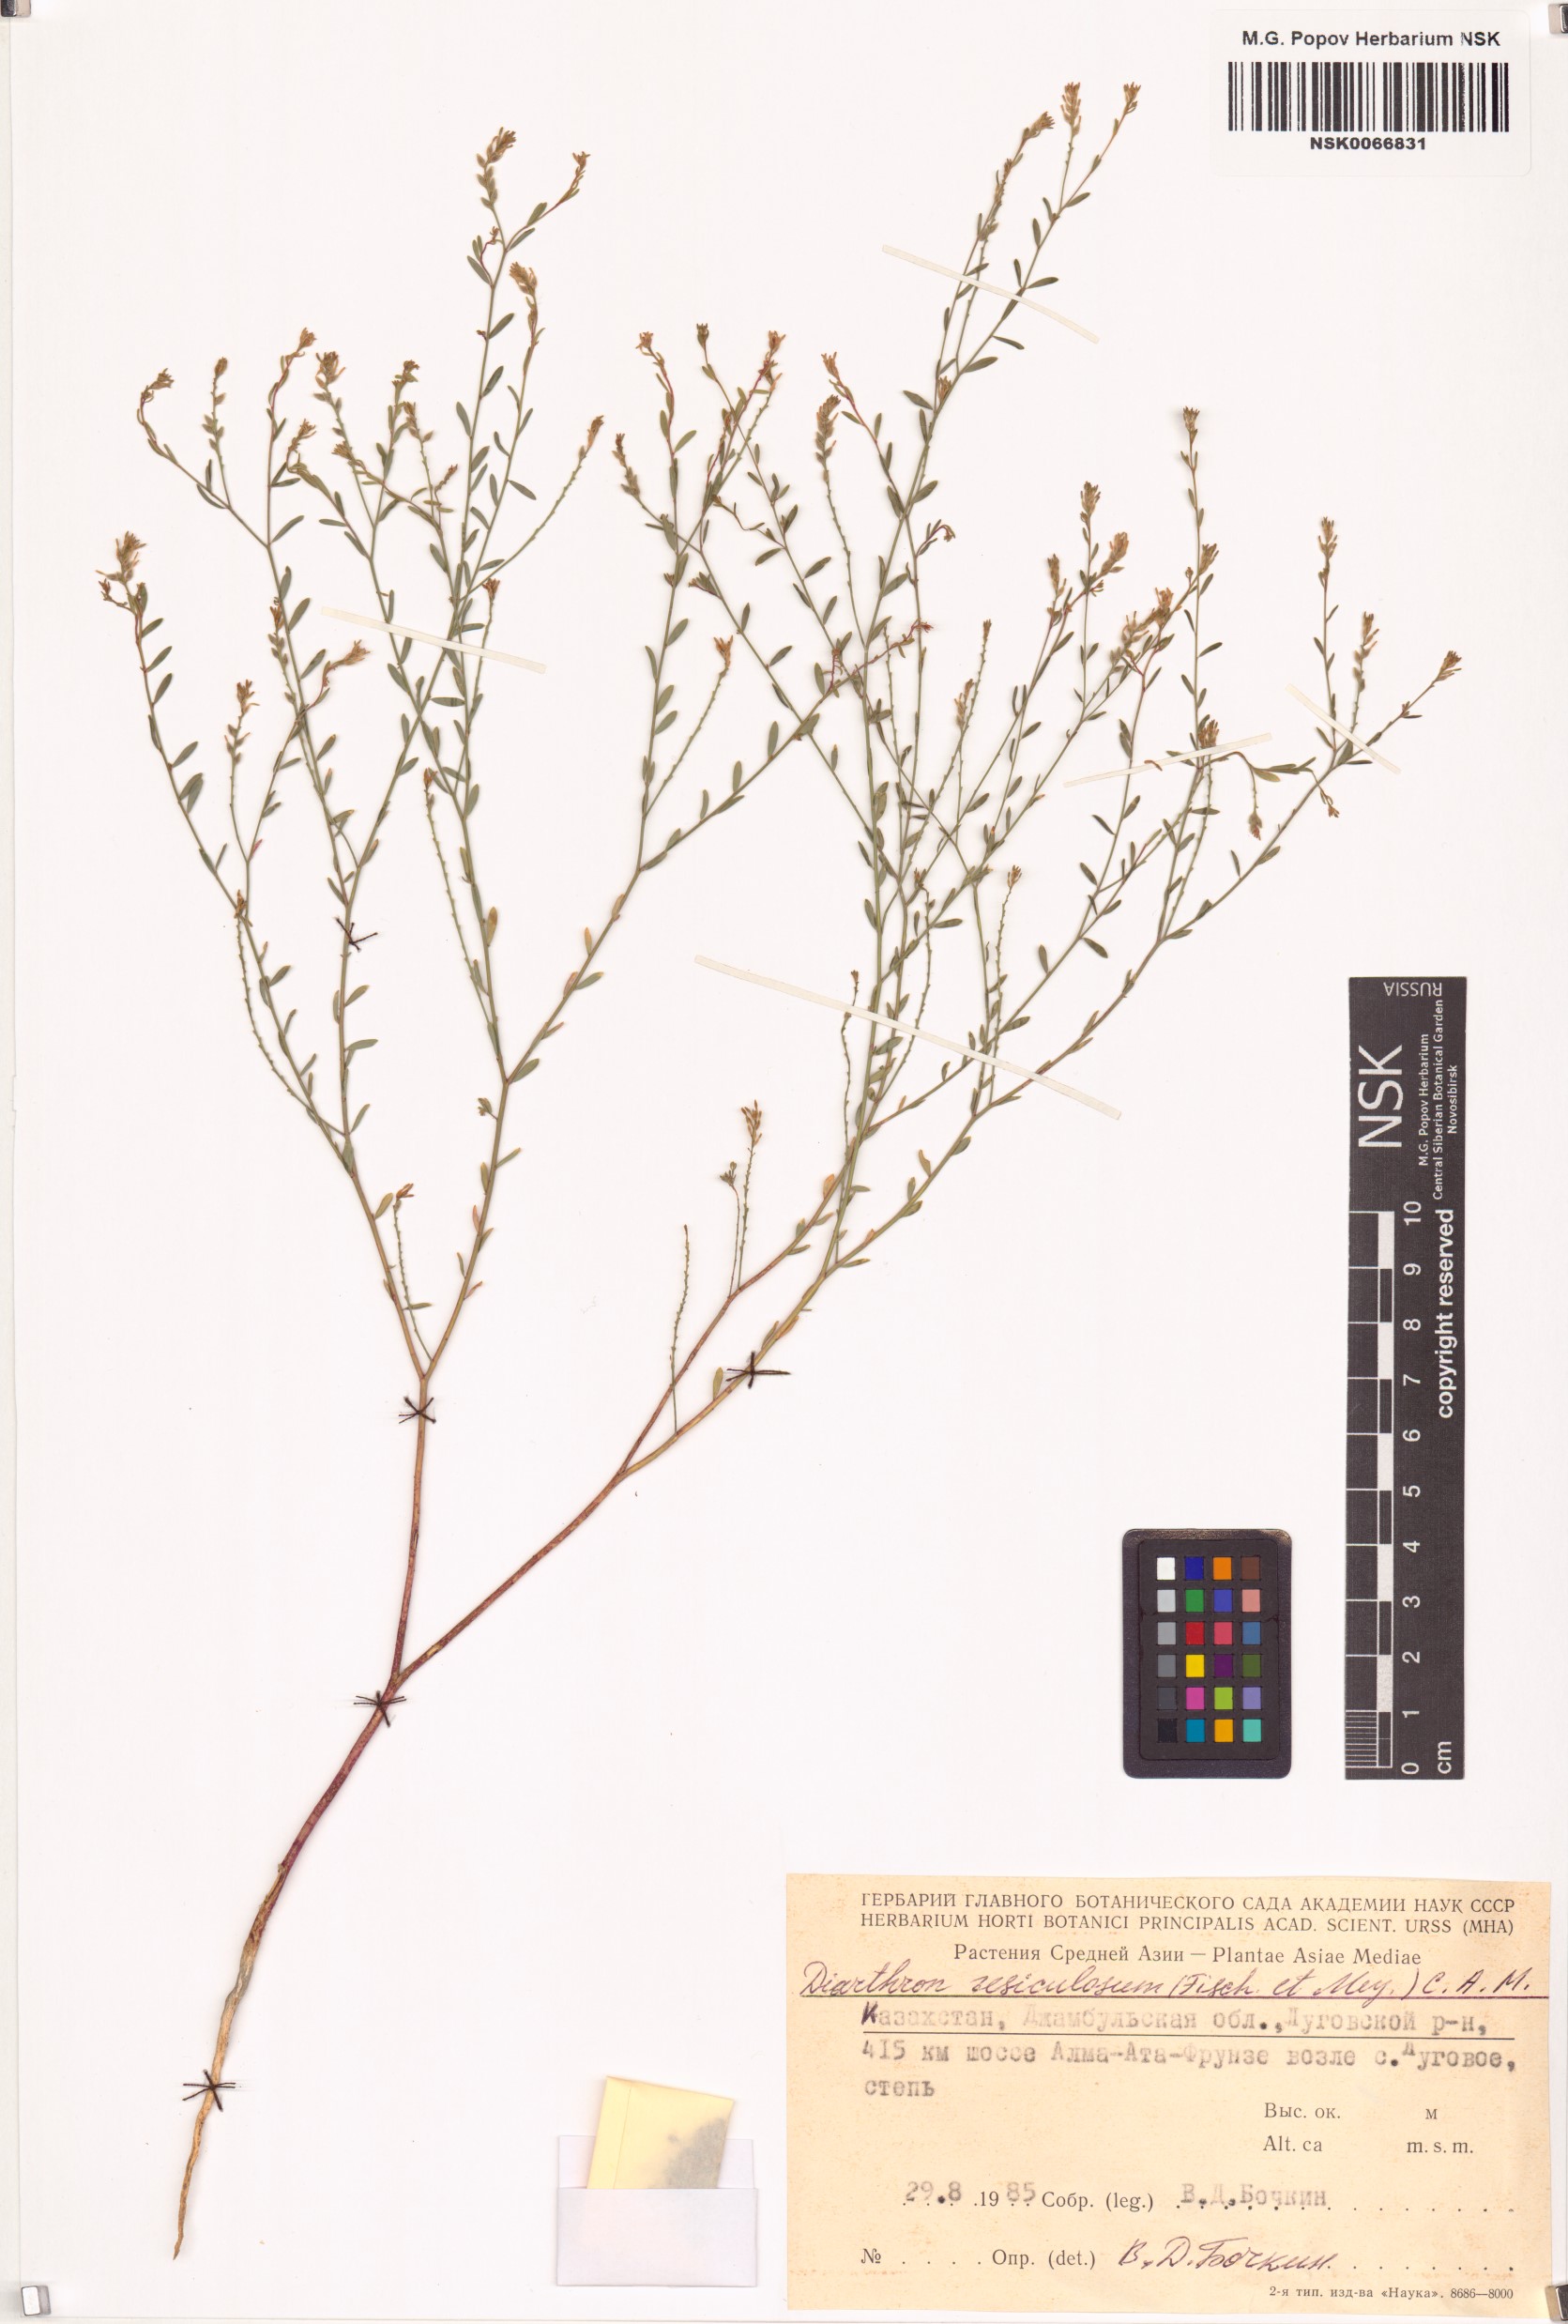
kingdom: Plantae
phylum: Tracheophyta
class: Magnoliopsida
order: Malvales
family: Thymelaeaceae
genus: Diarthron
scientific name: Diarthron vesiculosum
